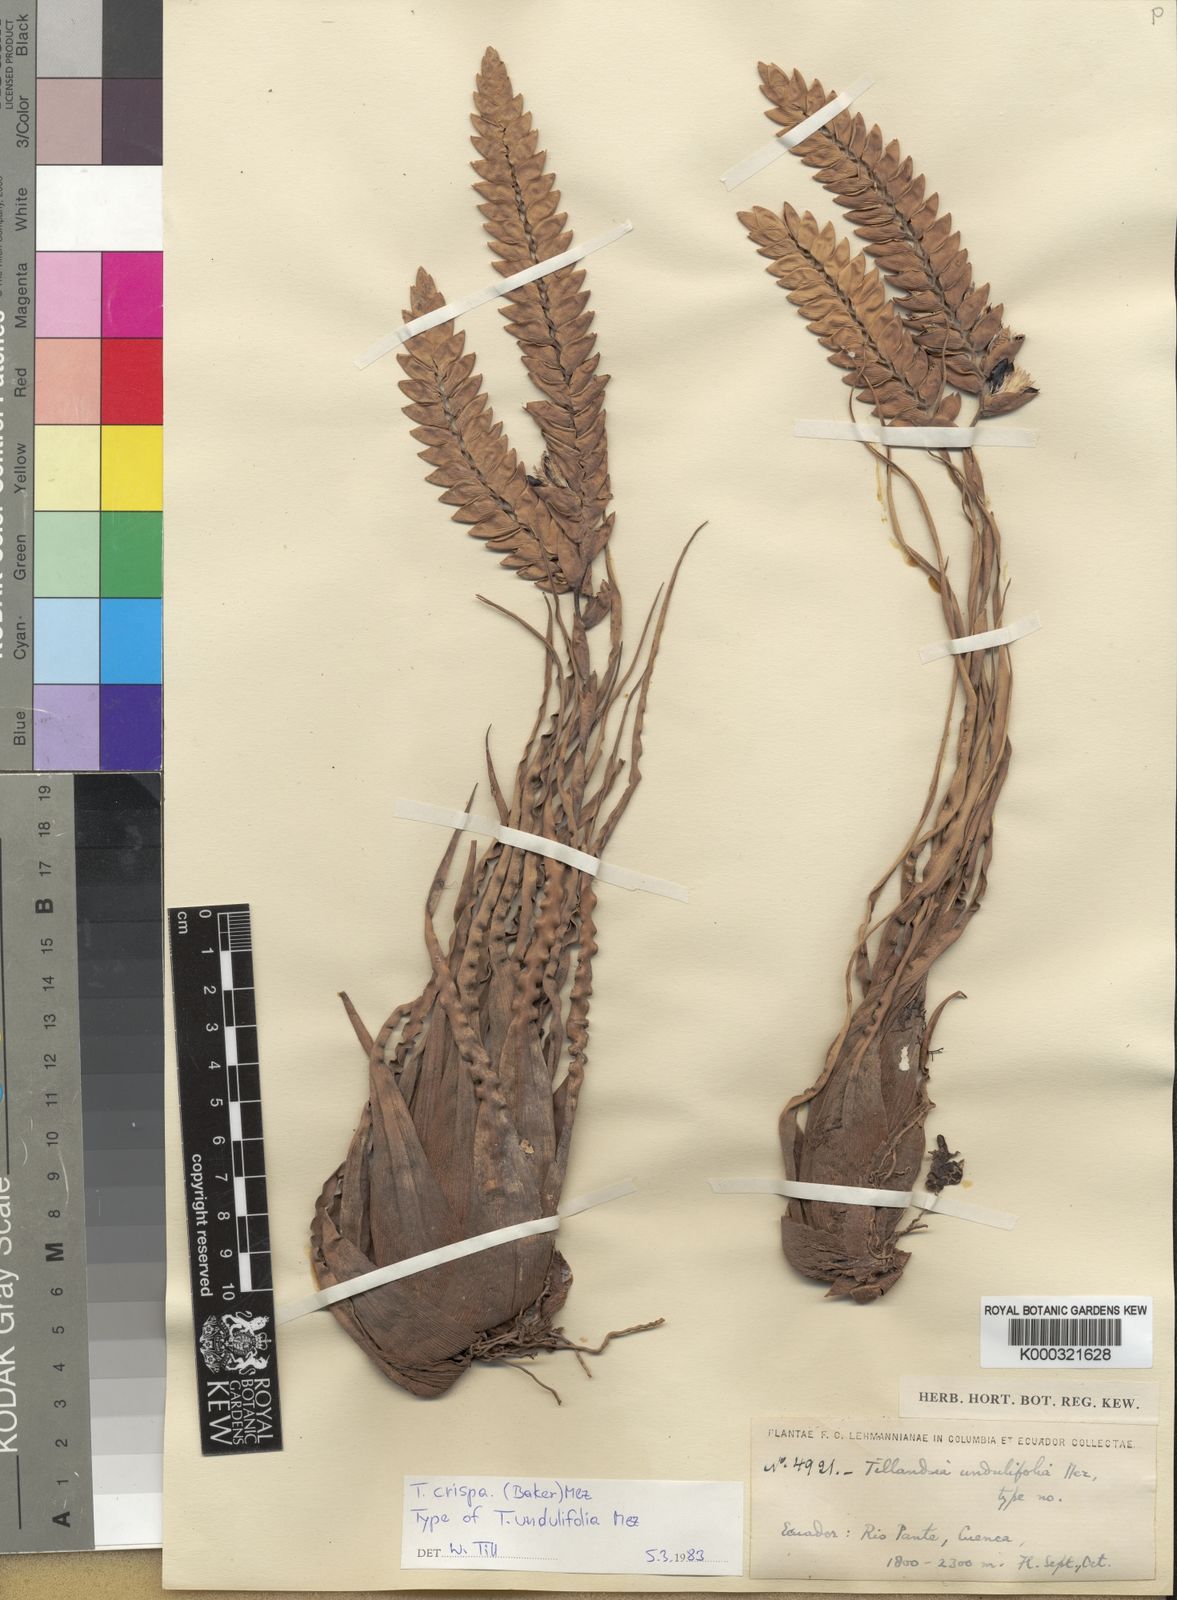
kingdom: Plantae
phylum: Tracheophyta
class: Liliopsida
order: Poales
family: Bromeliaceae
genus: Racinaea
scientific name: Racinaea crispa
